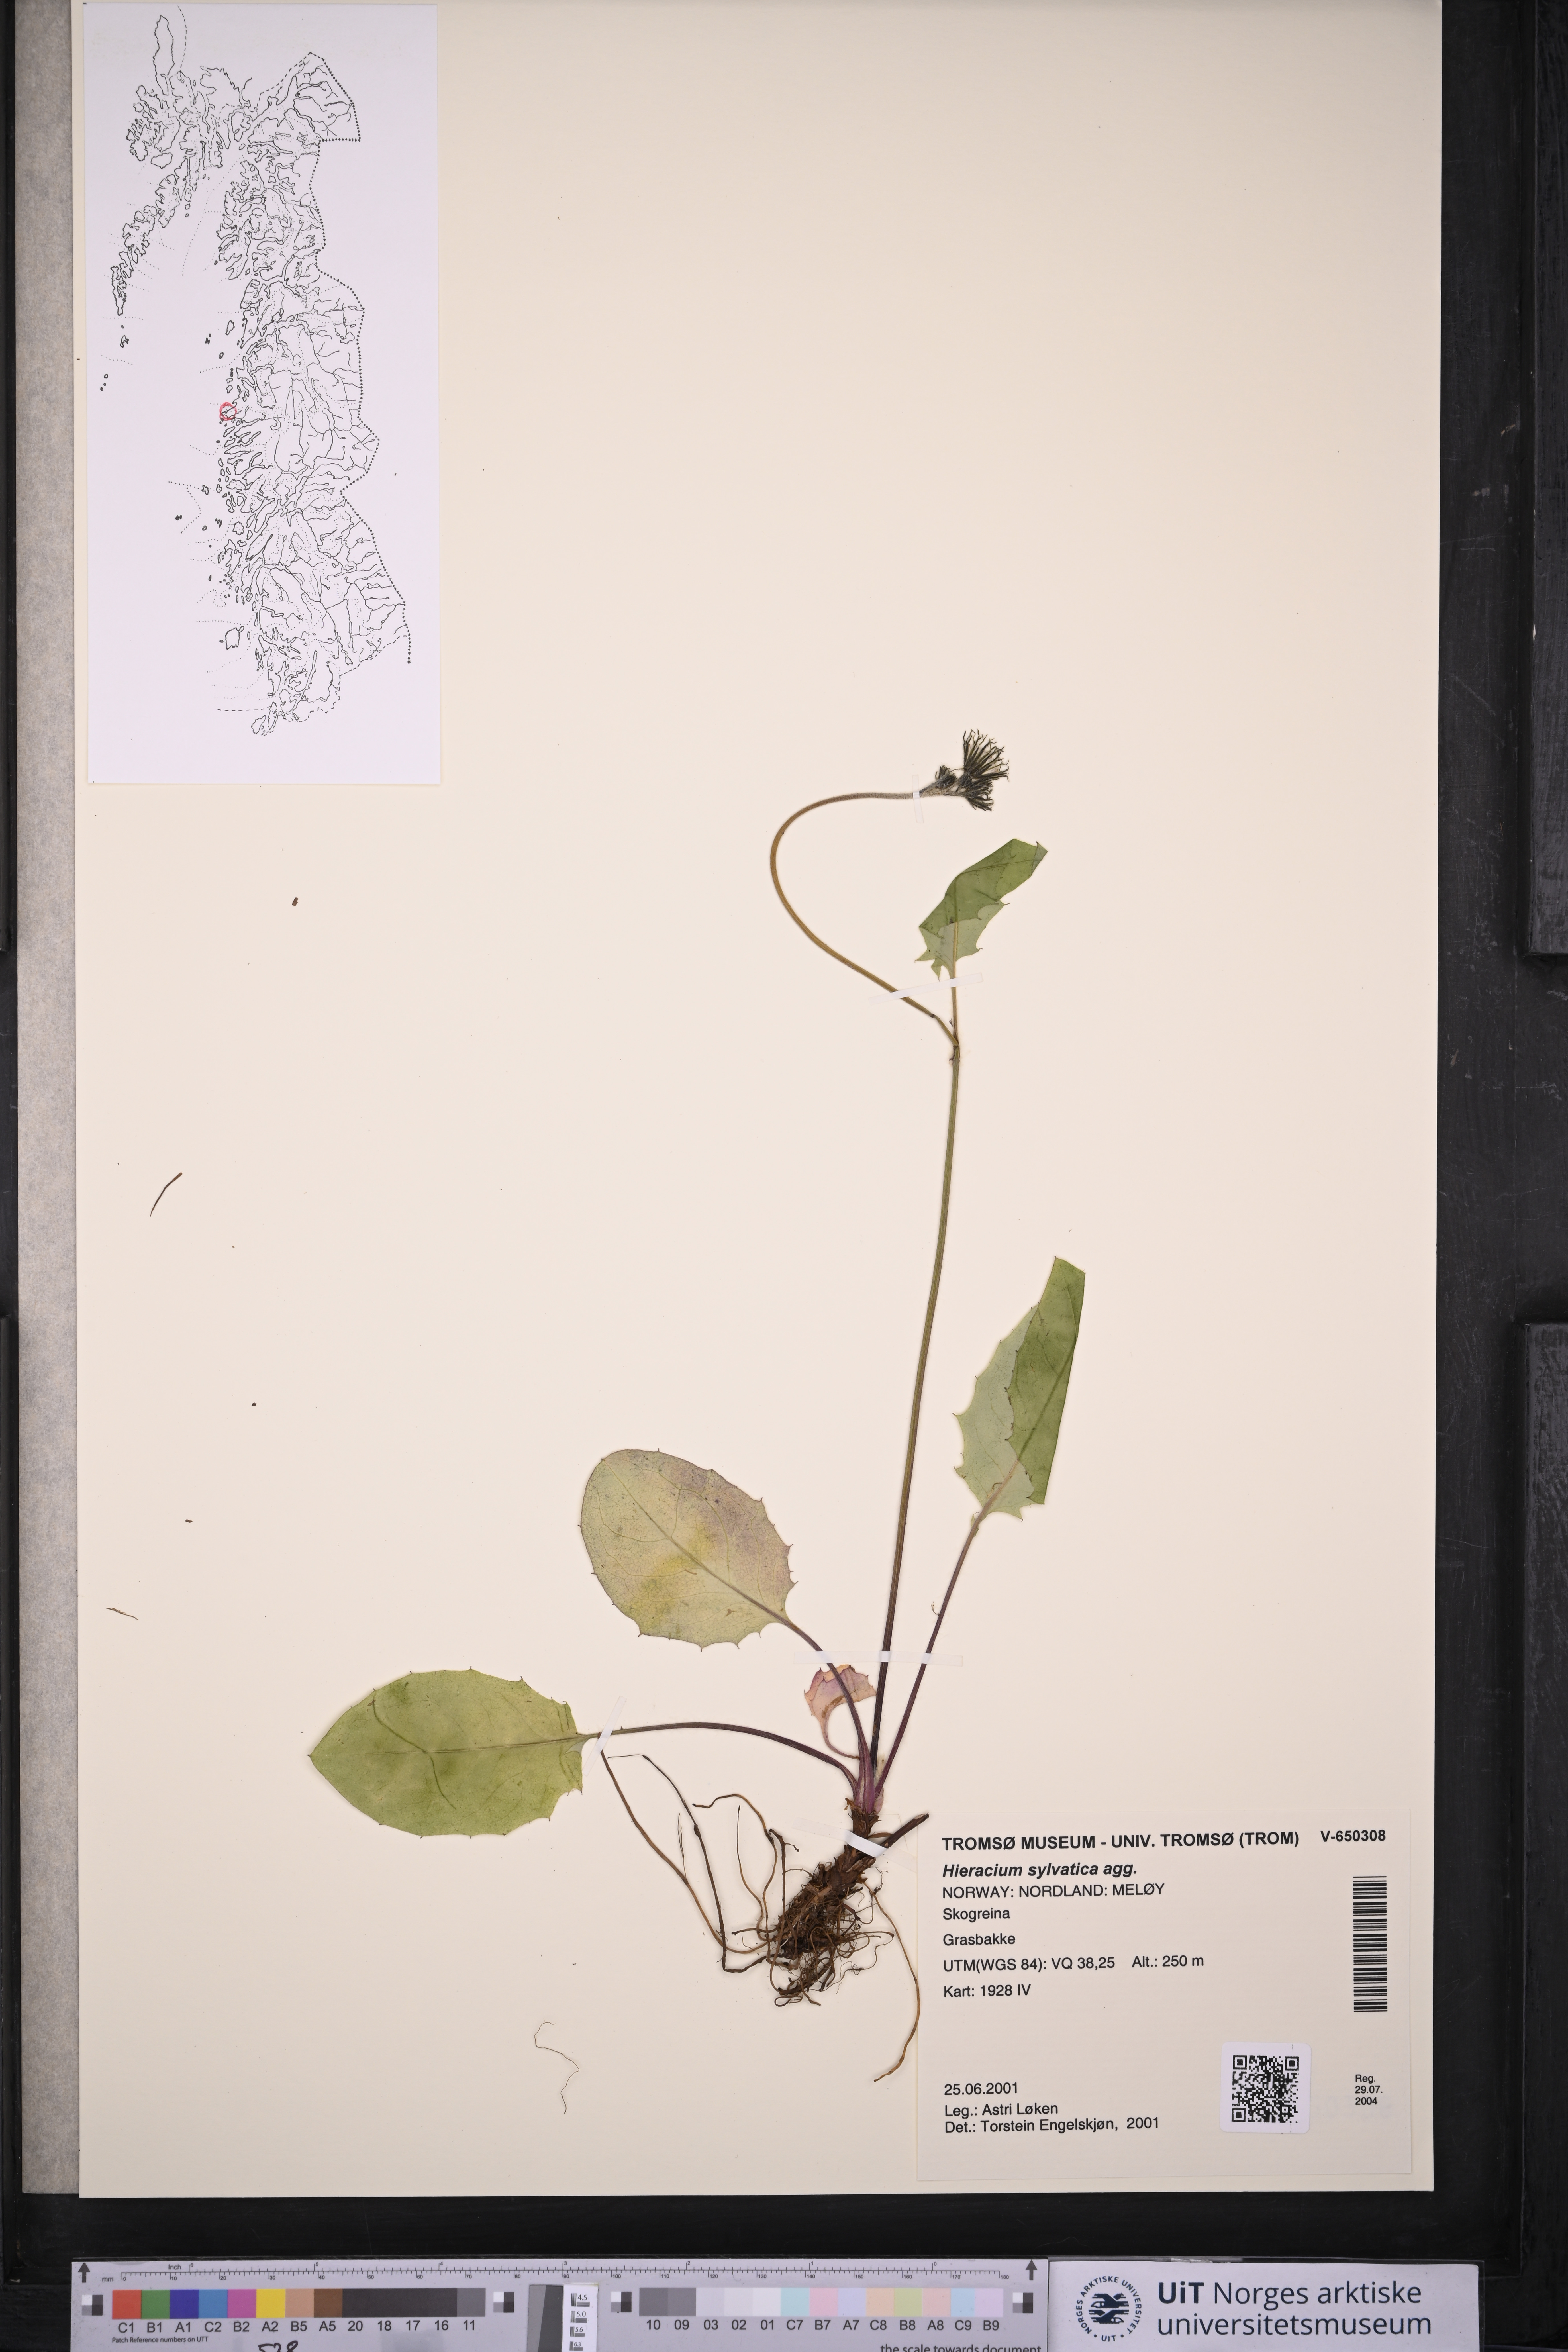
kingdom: Plantae
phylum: Tracheophyta
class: Magnoliopsida
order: Asterales
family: Asteraceae
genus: Hieracium
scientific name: Hieracium
